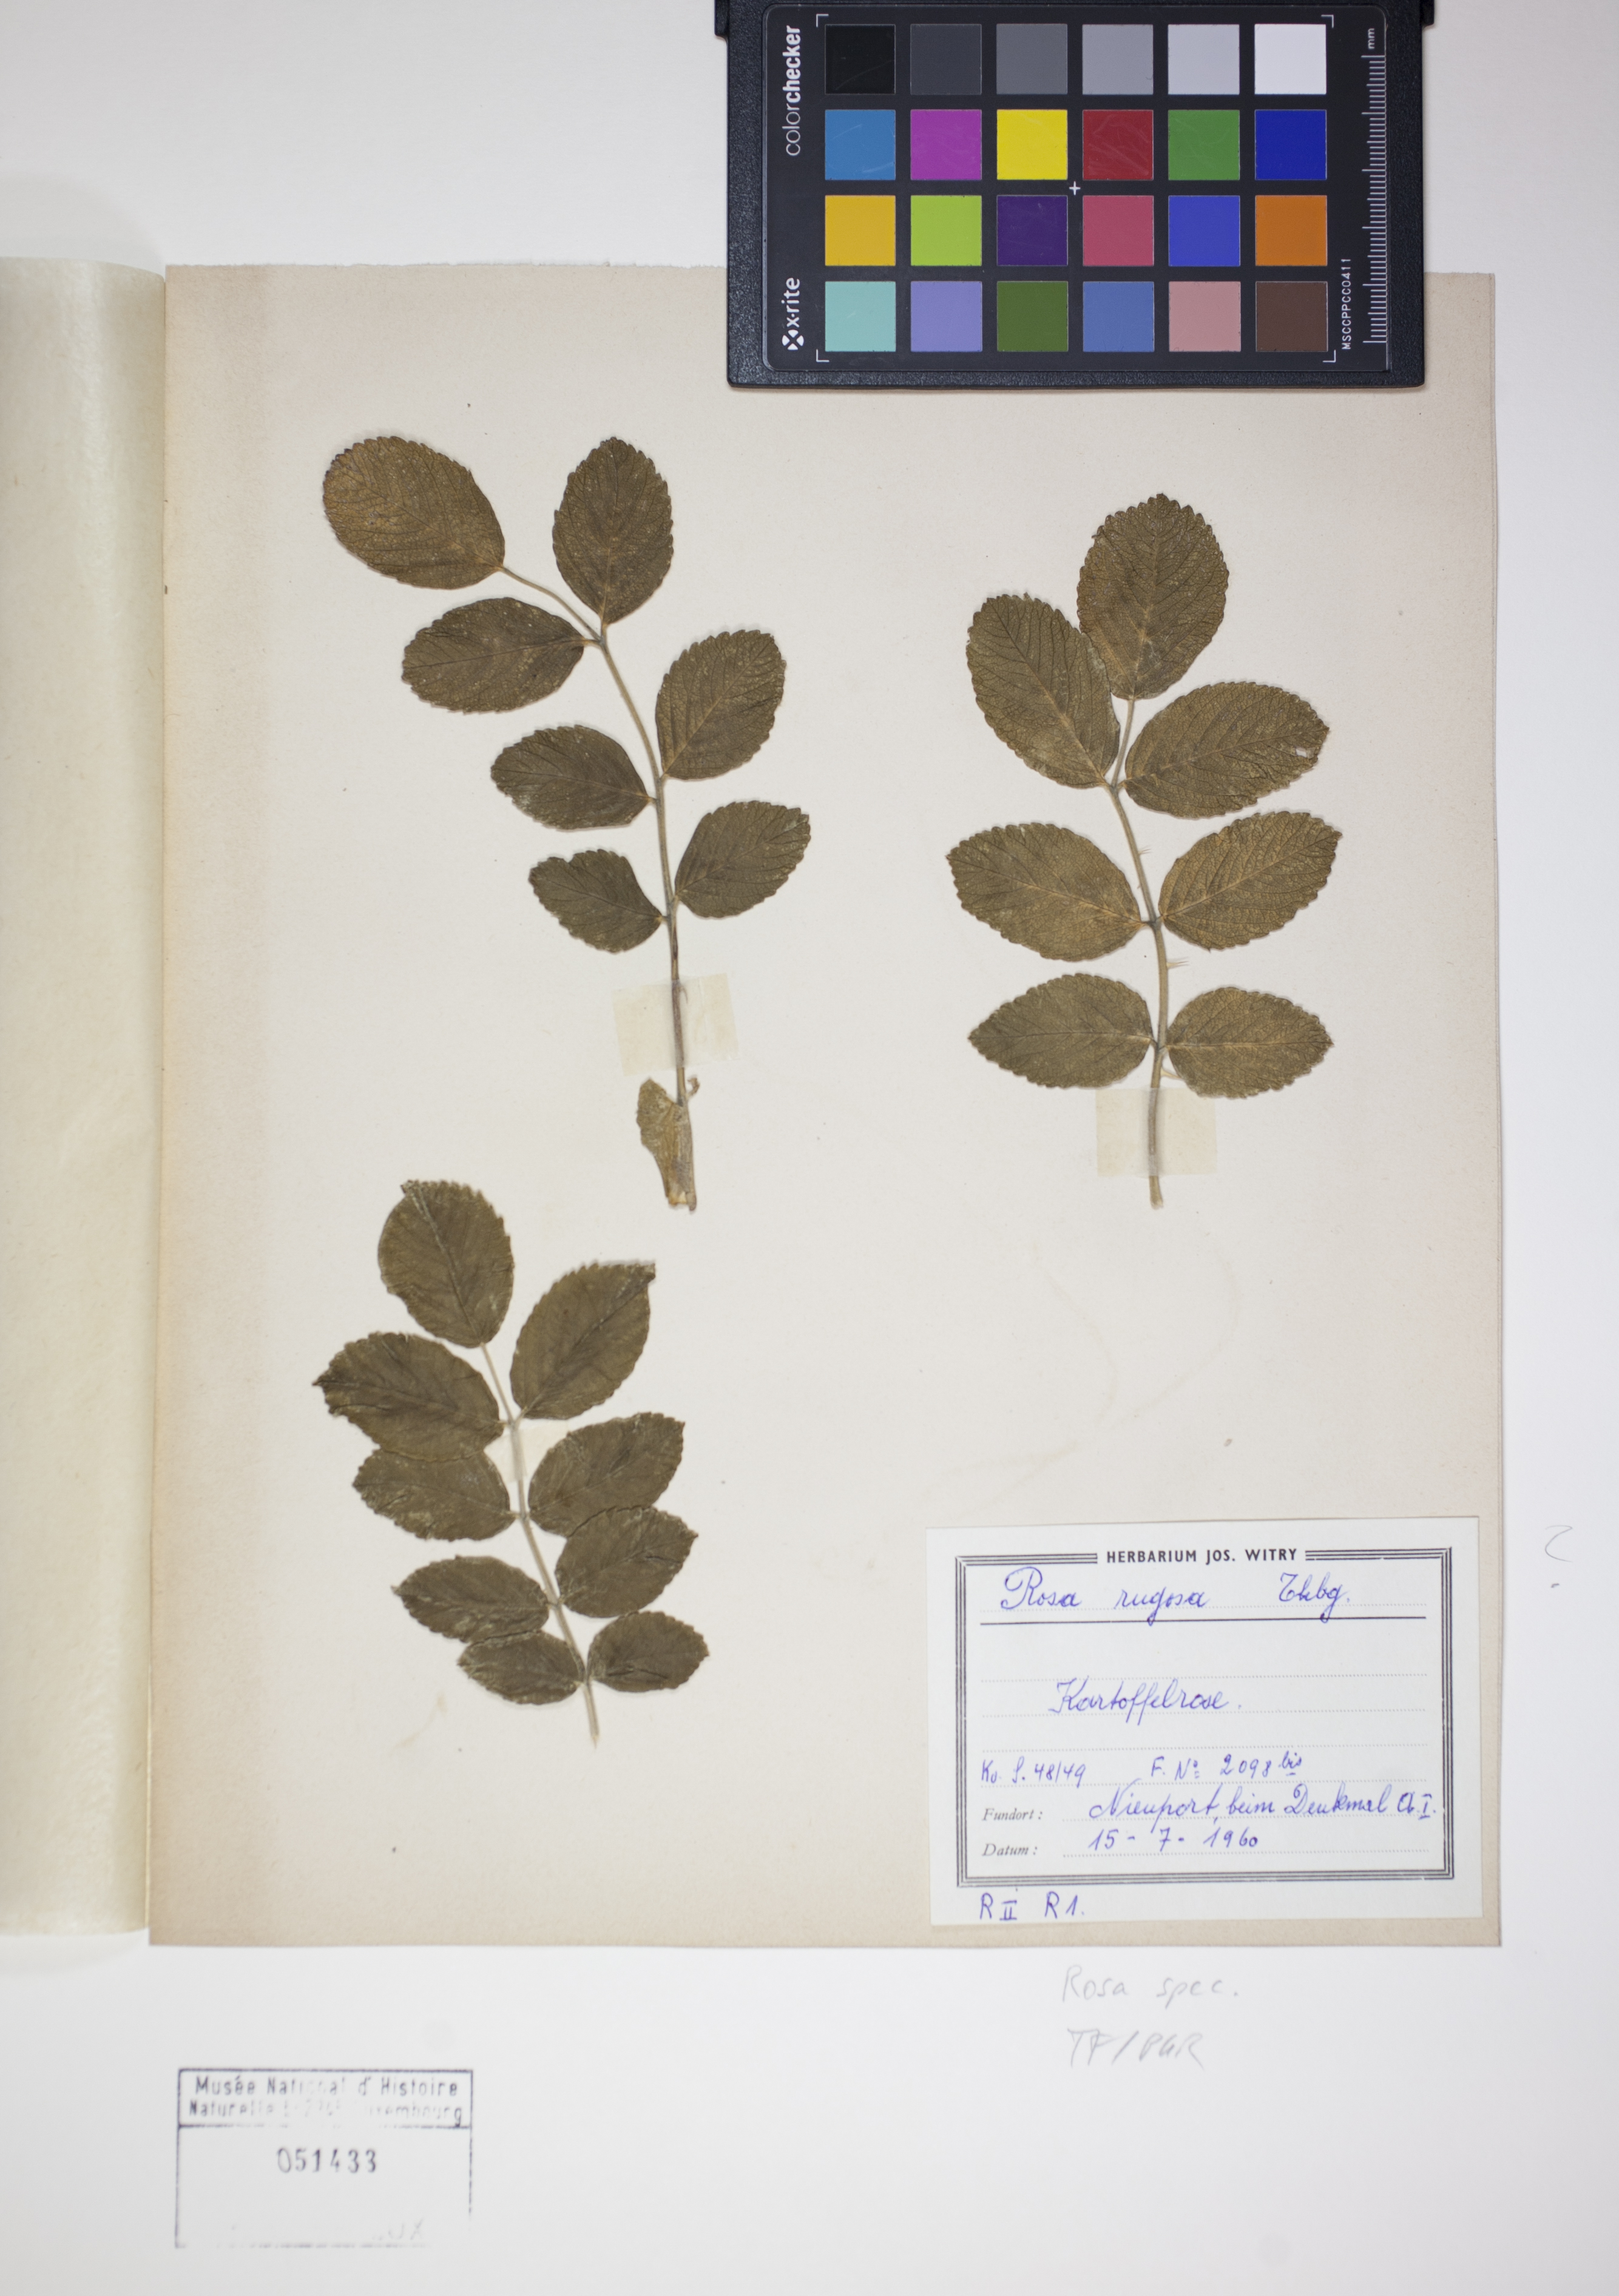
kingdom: Plantae
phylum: Tracheophyta
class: Magnoliopsida
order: Rosales
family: Rosaceae
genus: Rosa
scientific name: Rosa
